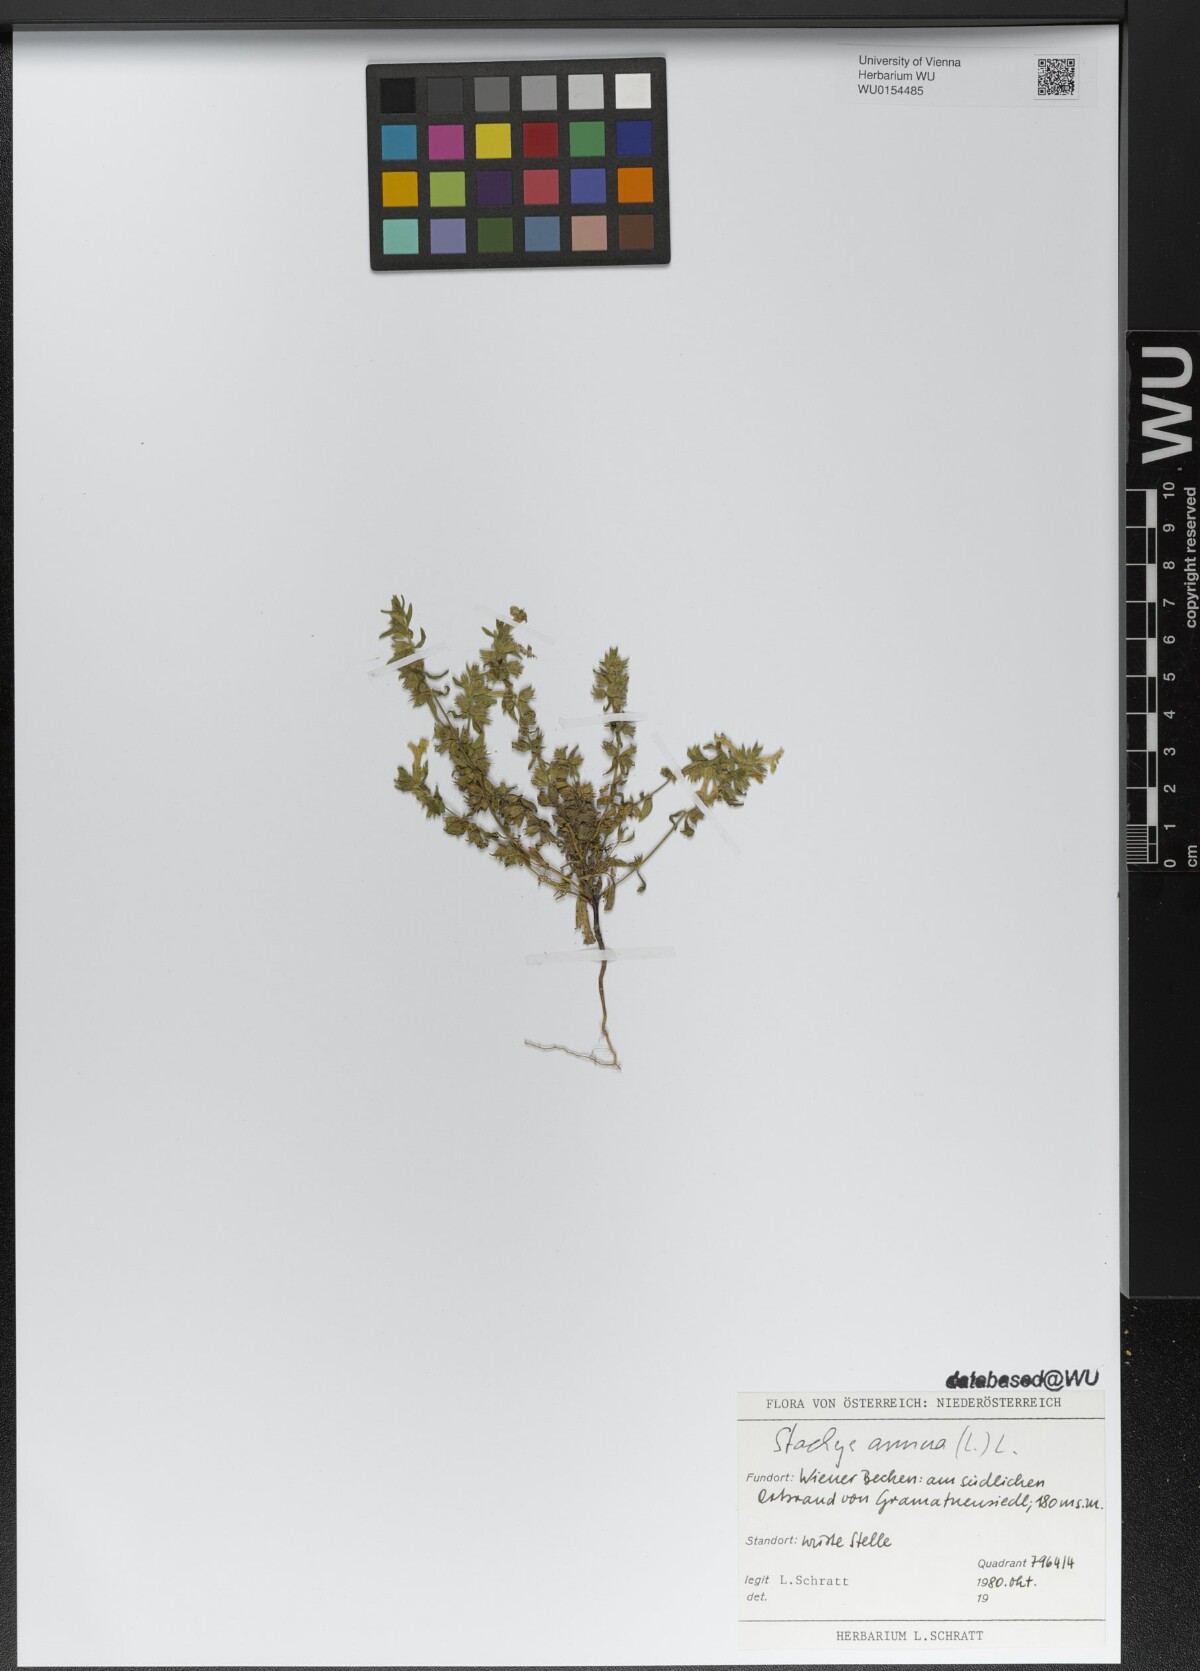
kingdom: Plantae
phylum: Tracheophyta
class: Magnoliopsida
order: Lamiales
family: Lamiaceae
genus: Stachys
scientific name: Stachys annua
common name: Annual yellow-woundwort
